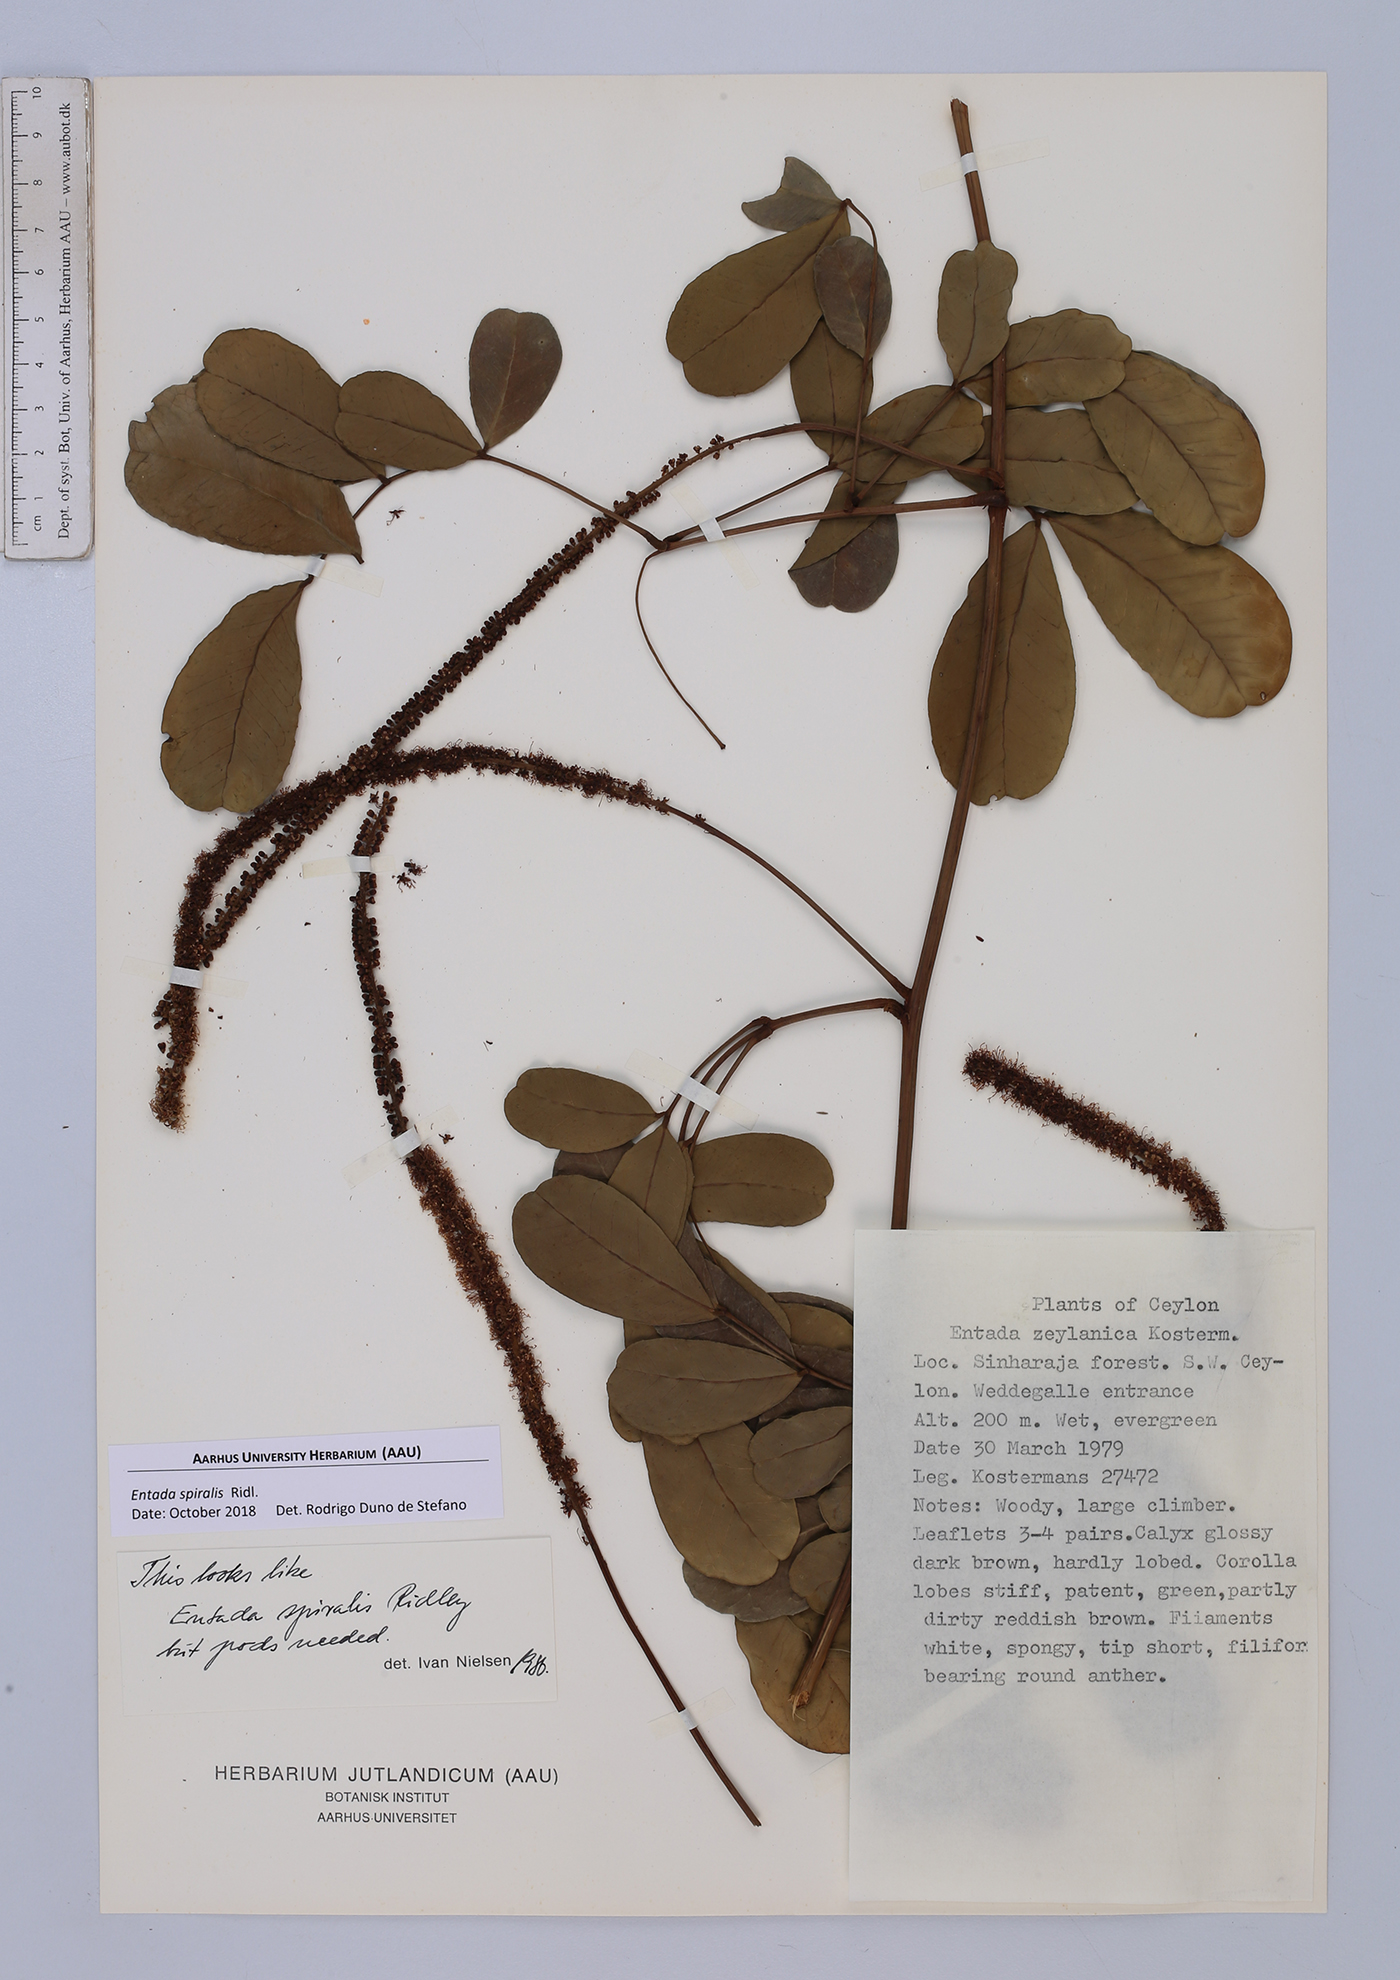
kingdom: Plantae
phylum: Tracheophyta
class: Magnoliopsida
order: Fabales
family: Fabaceae
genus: Entada
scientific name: Entada spiralis
